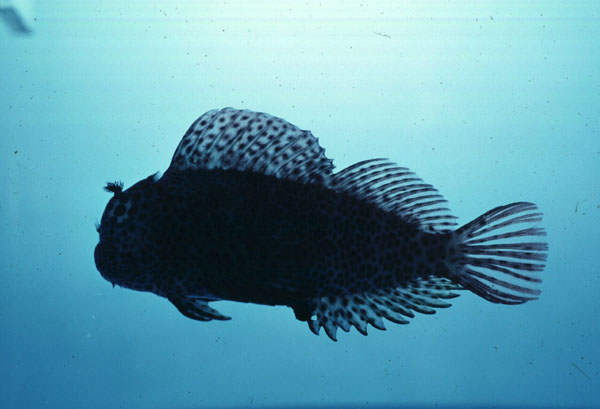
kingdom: Animalia
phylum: Chordata
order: Perciformes
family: Blenniidae
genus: Exallias
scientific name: Exallias brevis
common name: Leopard blenny
